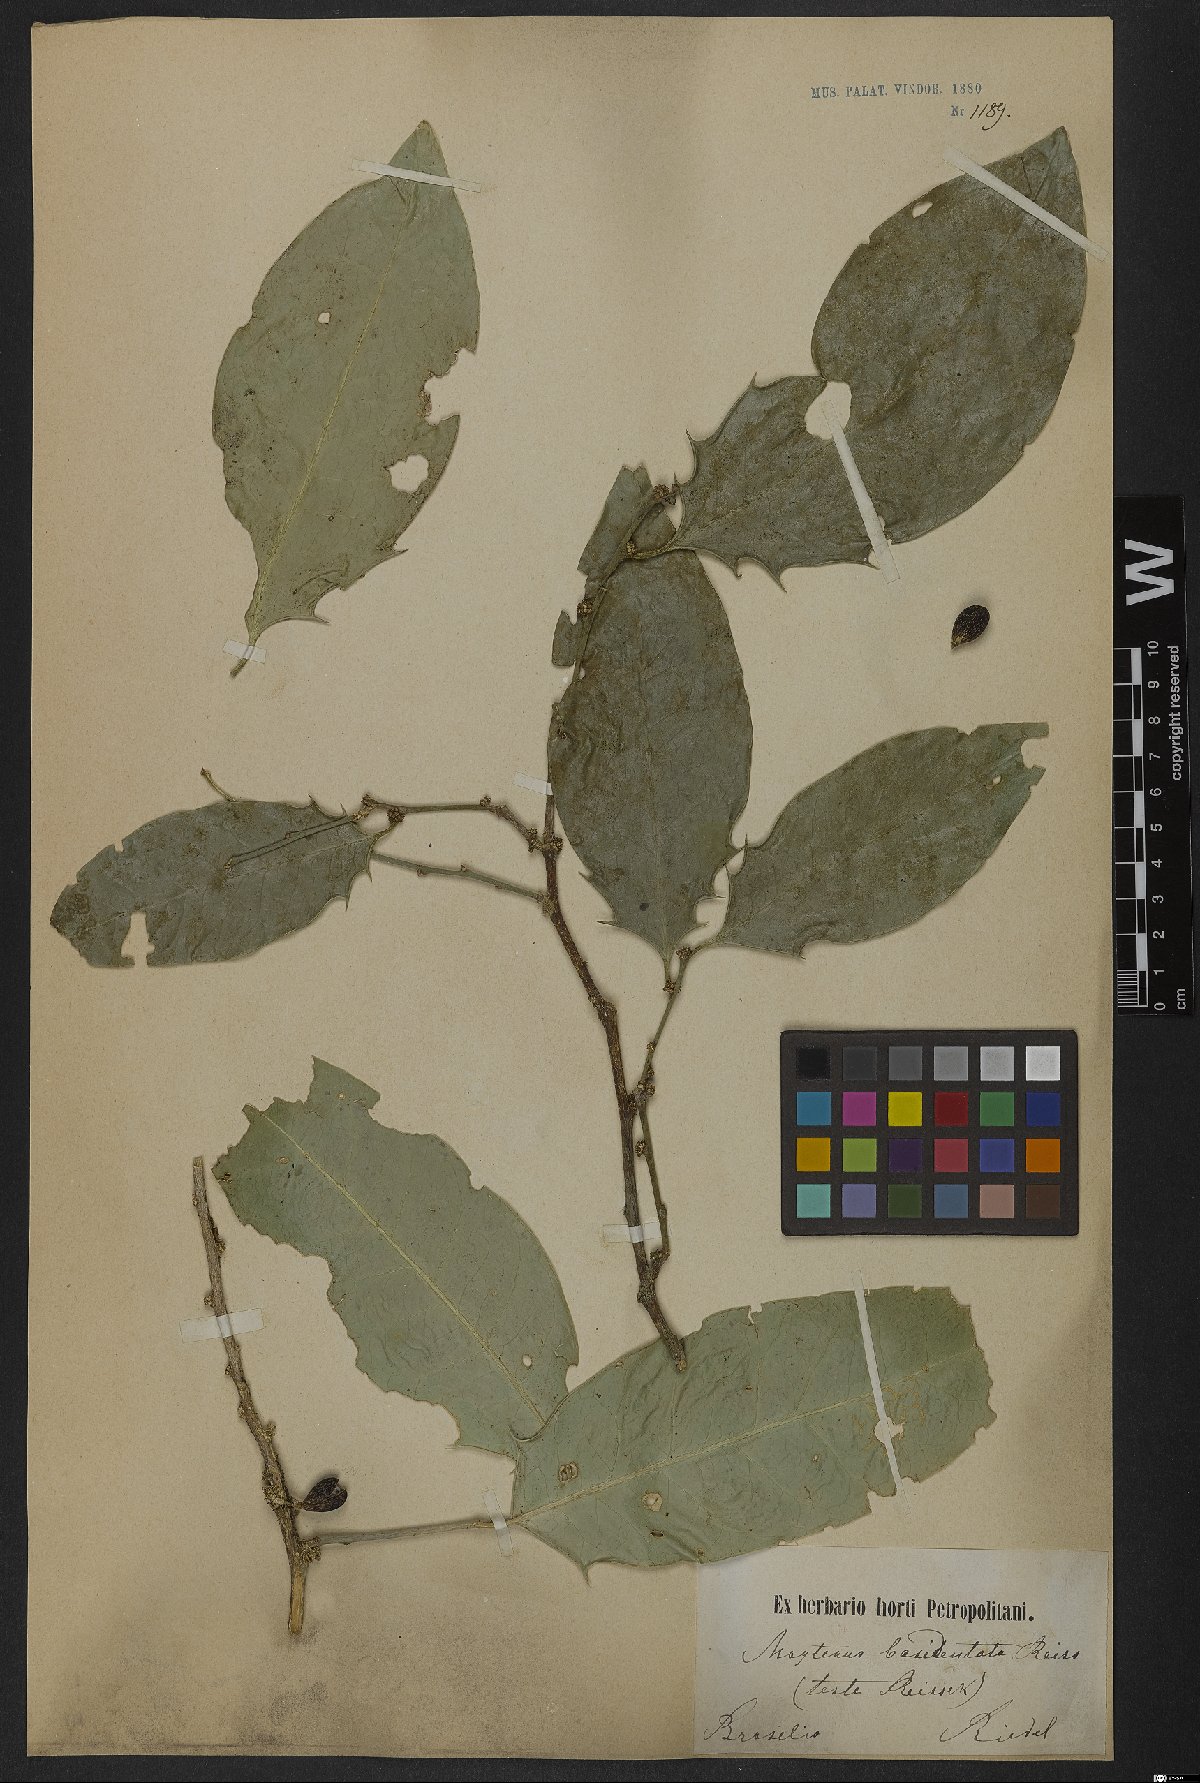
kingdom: Plantae
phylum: Tracheophyta
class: Magnoliopsida
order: Celastrales
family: Celastraceae
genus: Monteverdia
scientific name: Monteverdia basidentata
